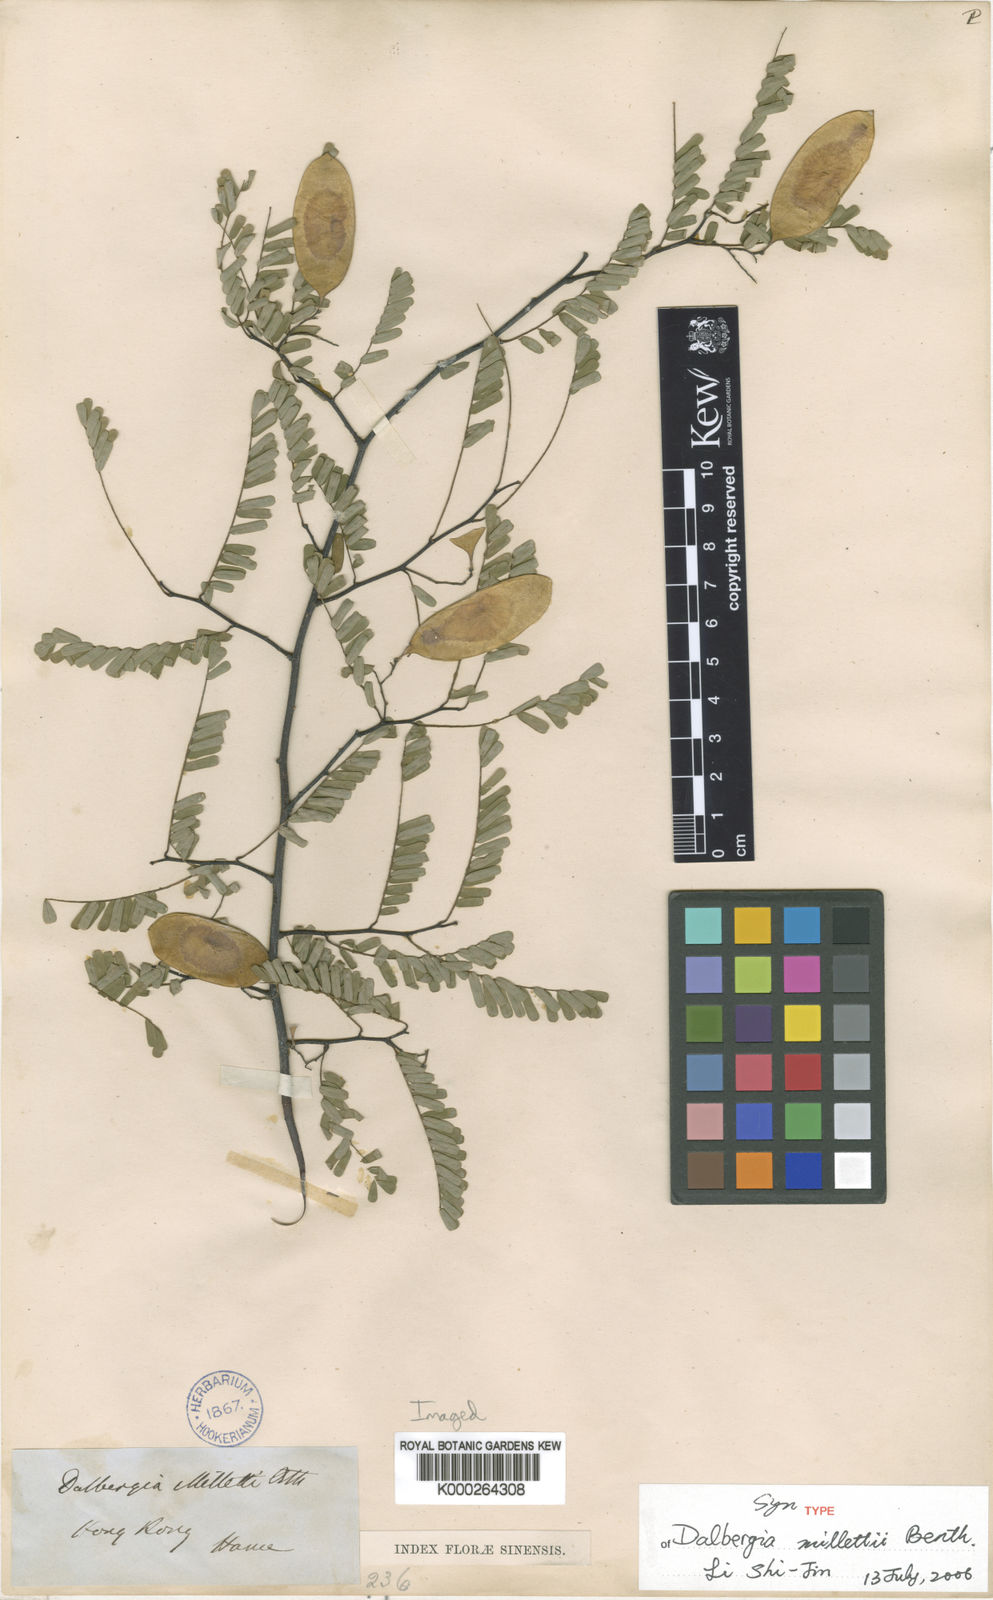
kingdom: Plantae
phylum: Tracheophyta
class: Magnoliopsida
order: Fabales
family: Fabaceae
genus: Dalbergia
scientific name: Dalbergia millettii
